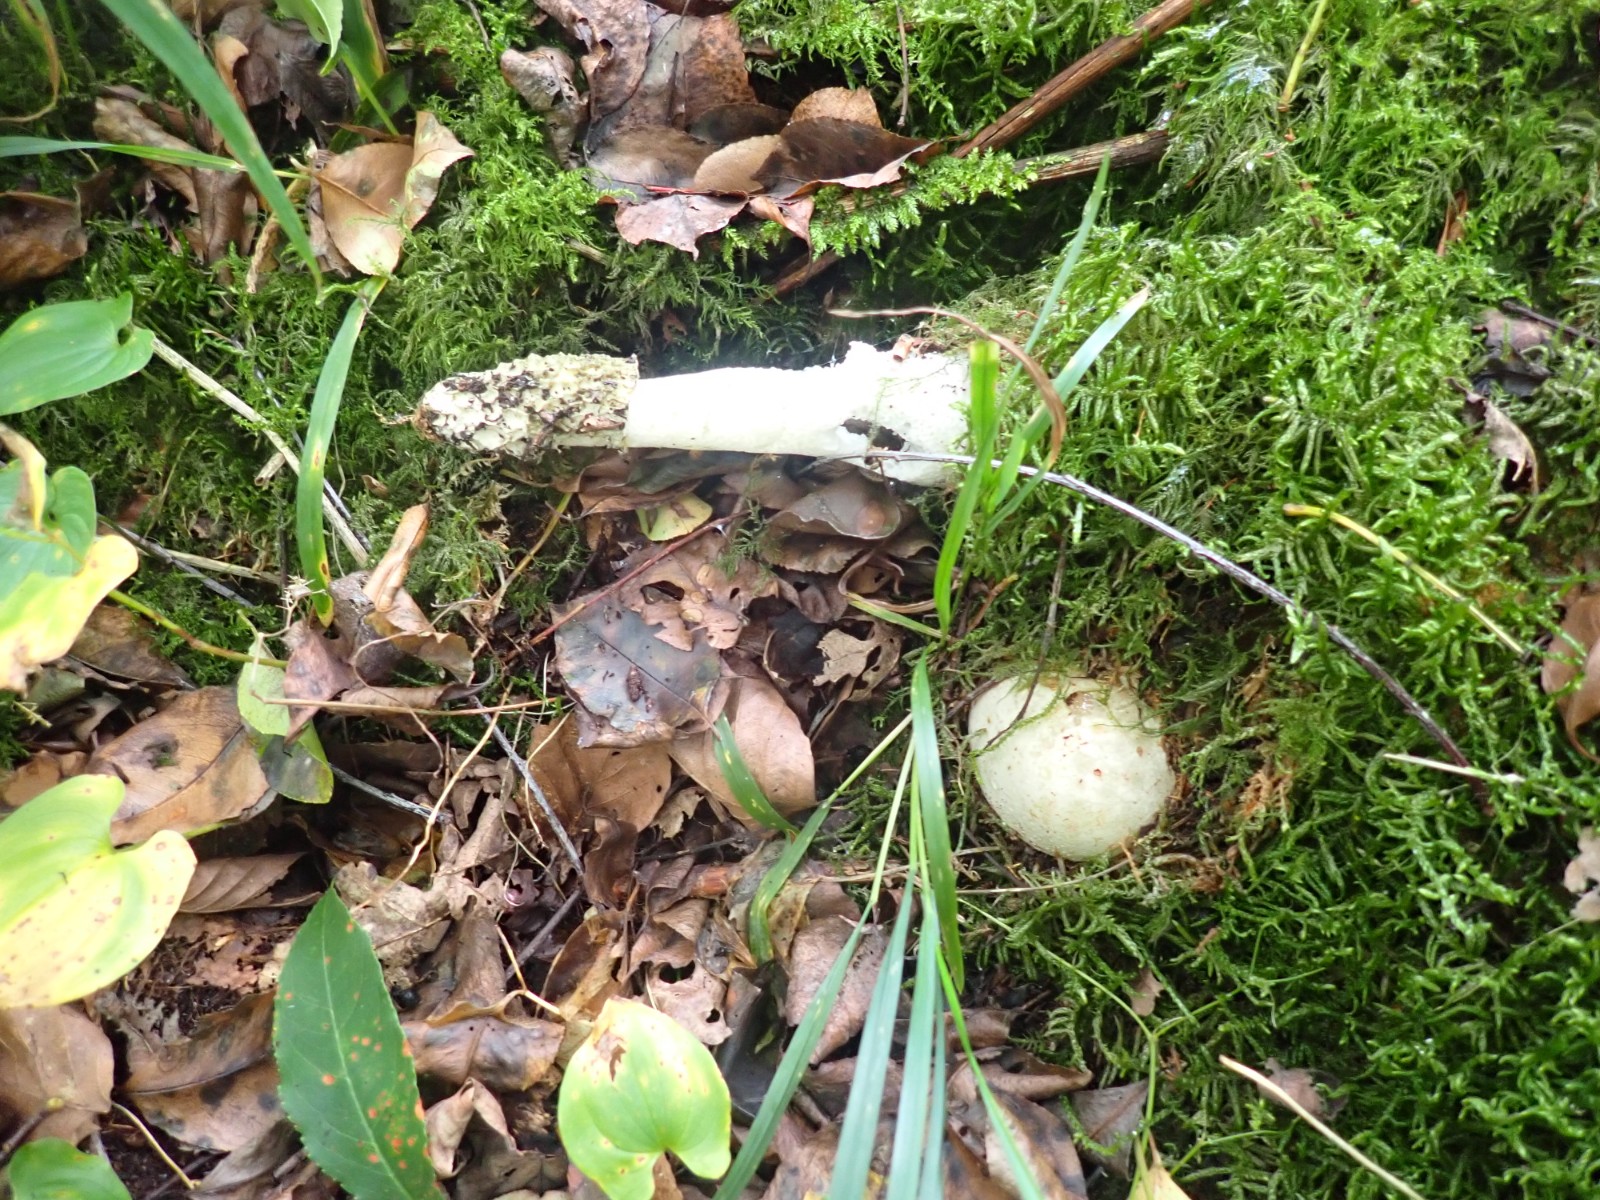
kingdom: Fungi
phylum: Basidiomycota
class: Agaricomycetes
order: Phallales
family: Phallaceae
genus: Phallus
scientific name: Phallus impudicus
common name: almindelig stinksvamp
